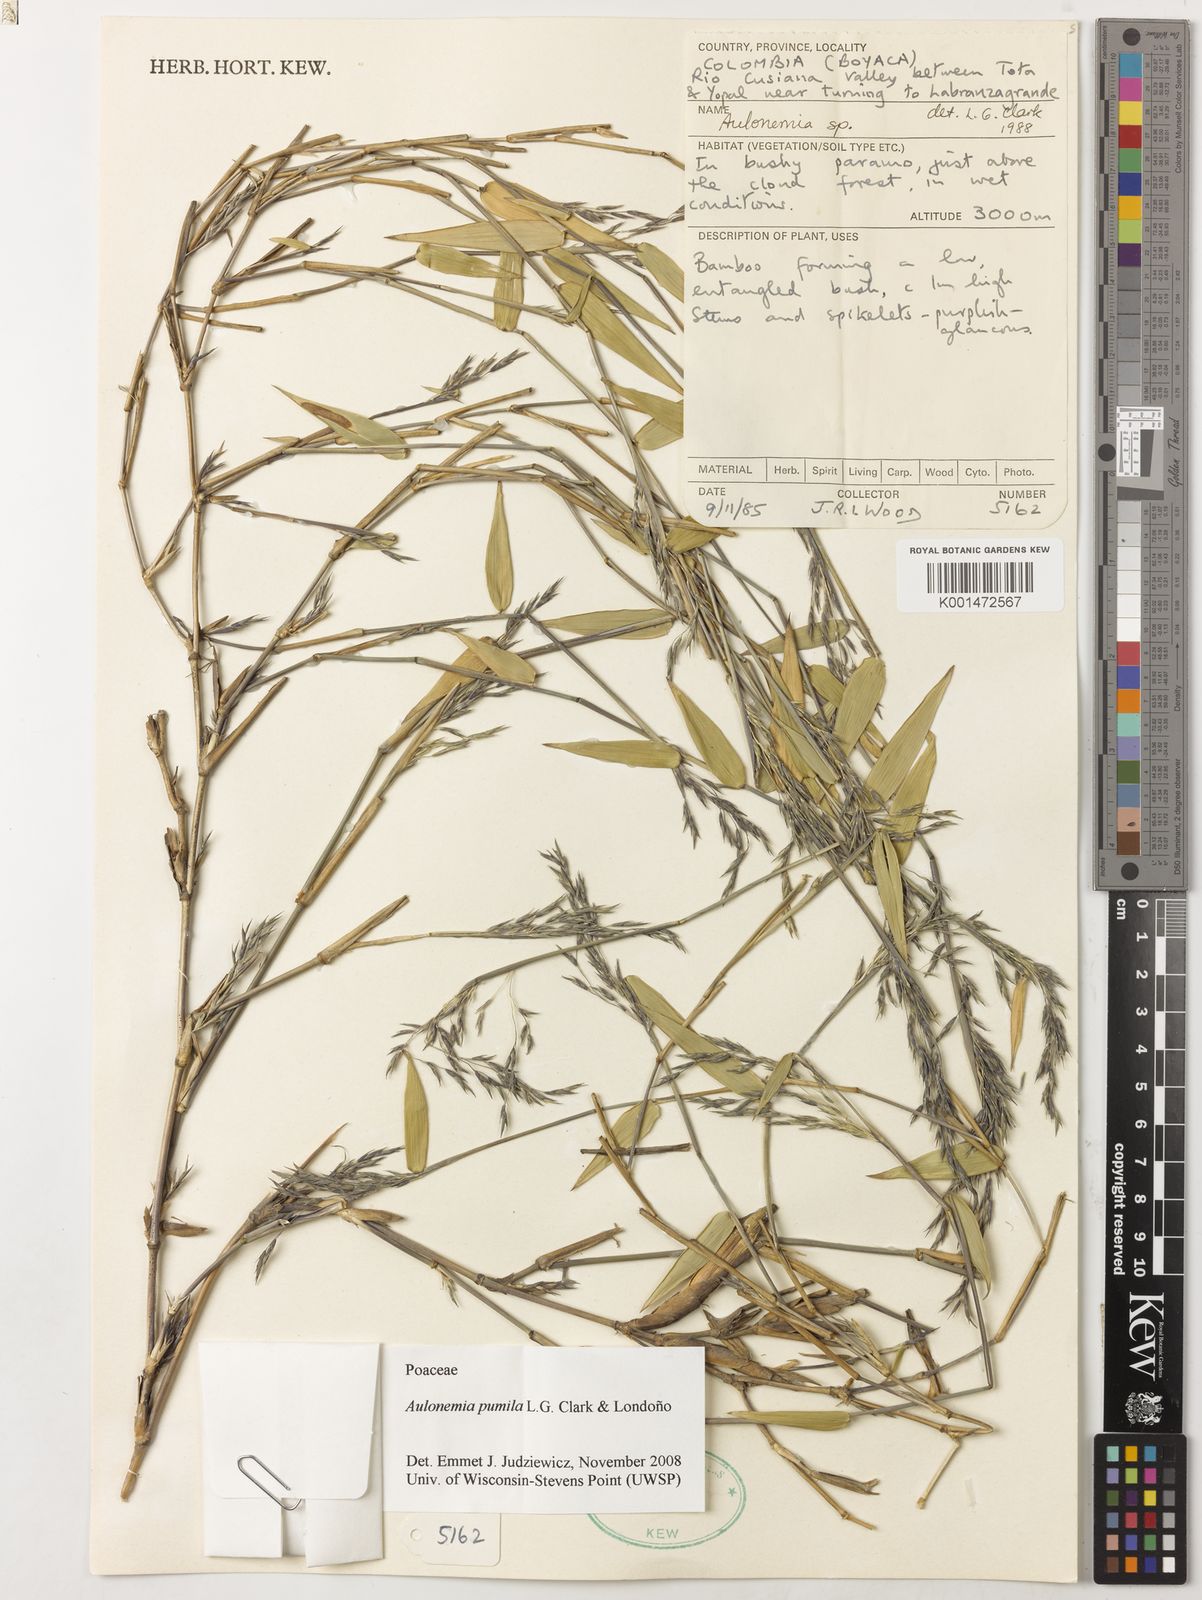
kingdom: Plantae
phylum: Tracheophyta
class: Liliopsida
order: Poales
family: Poaceae
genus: Aulonemia
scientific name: Aulonemia
